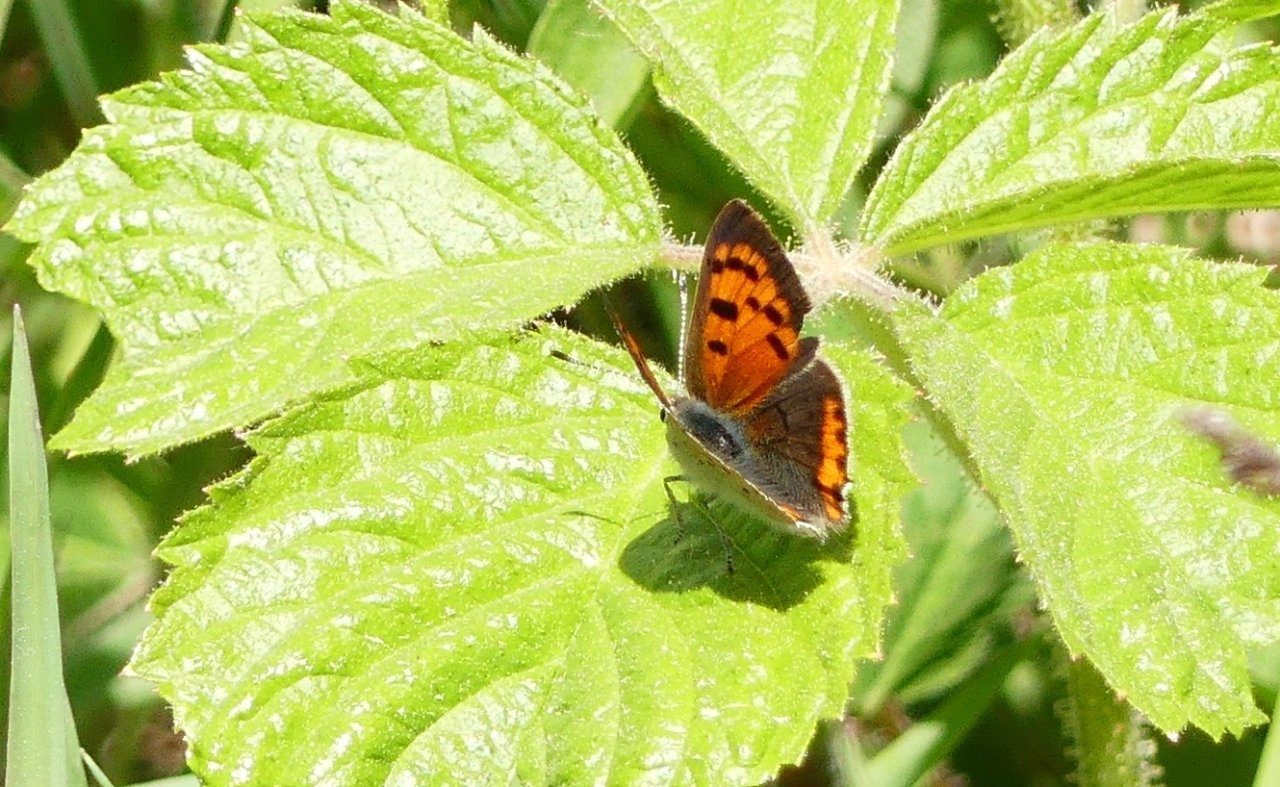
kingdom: Animalia
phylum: Arthropoda
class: Insecta
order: Lepidoptera
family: Lycaenidae
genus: Lycaena
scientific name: Lycaena phlaeas
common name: American Copper
